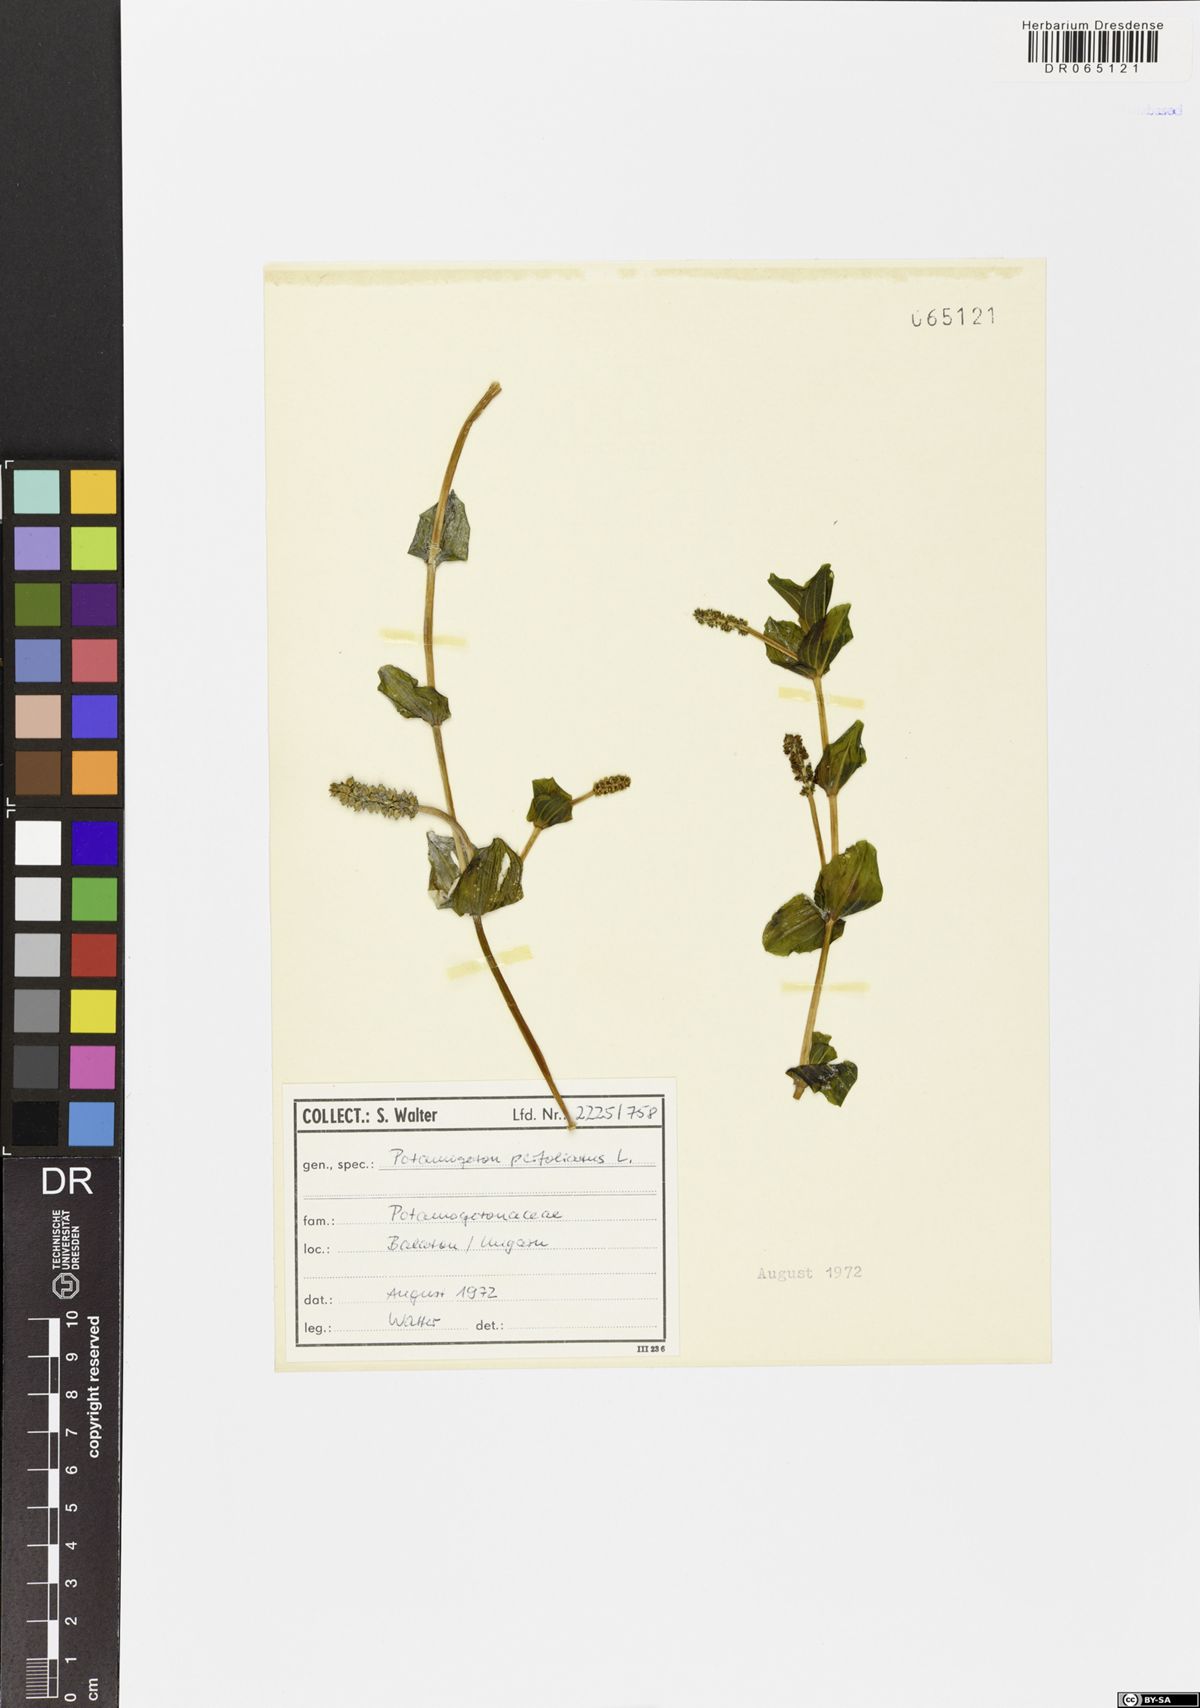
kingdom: Plantae
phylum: Tracheophyta
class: Liliopsida
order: Alismatales
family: Potamogetonaceae
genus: Potamogeton
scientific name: Potamogeton perfoliatus
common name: Perfoliate pondweed
